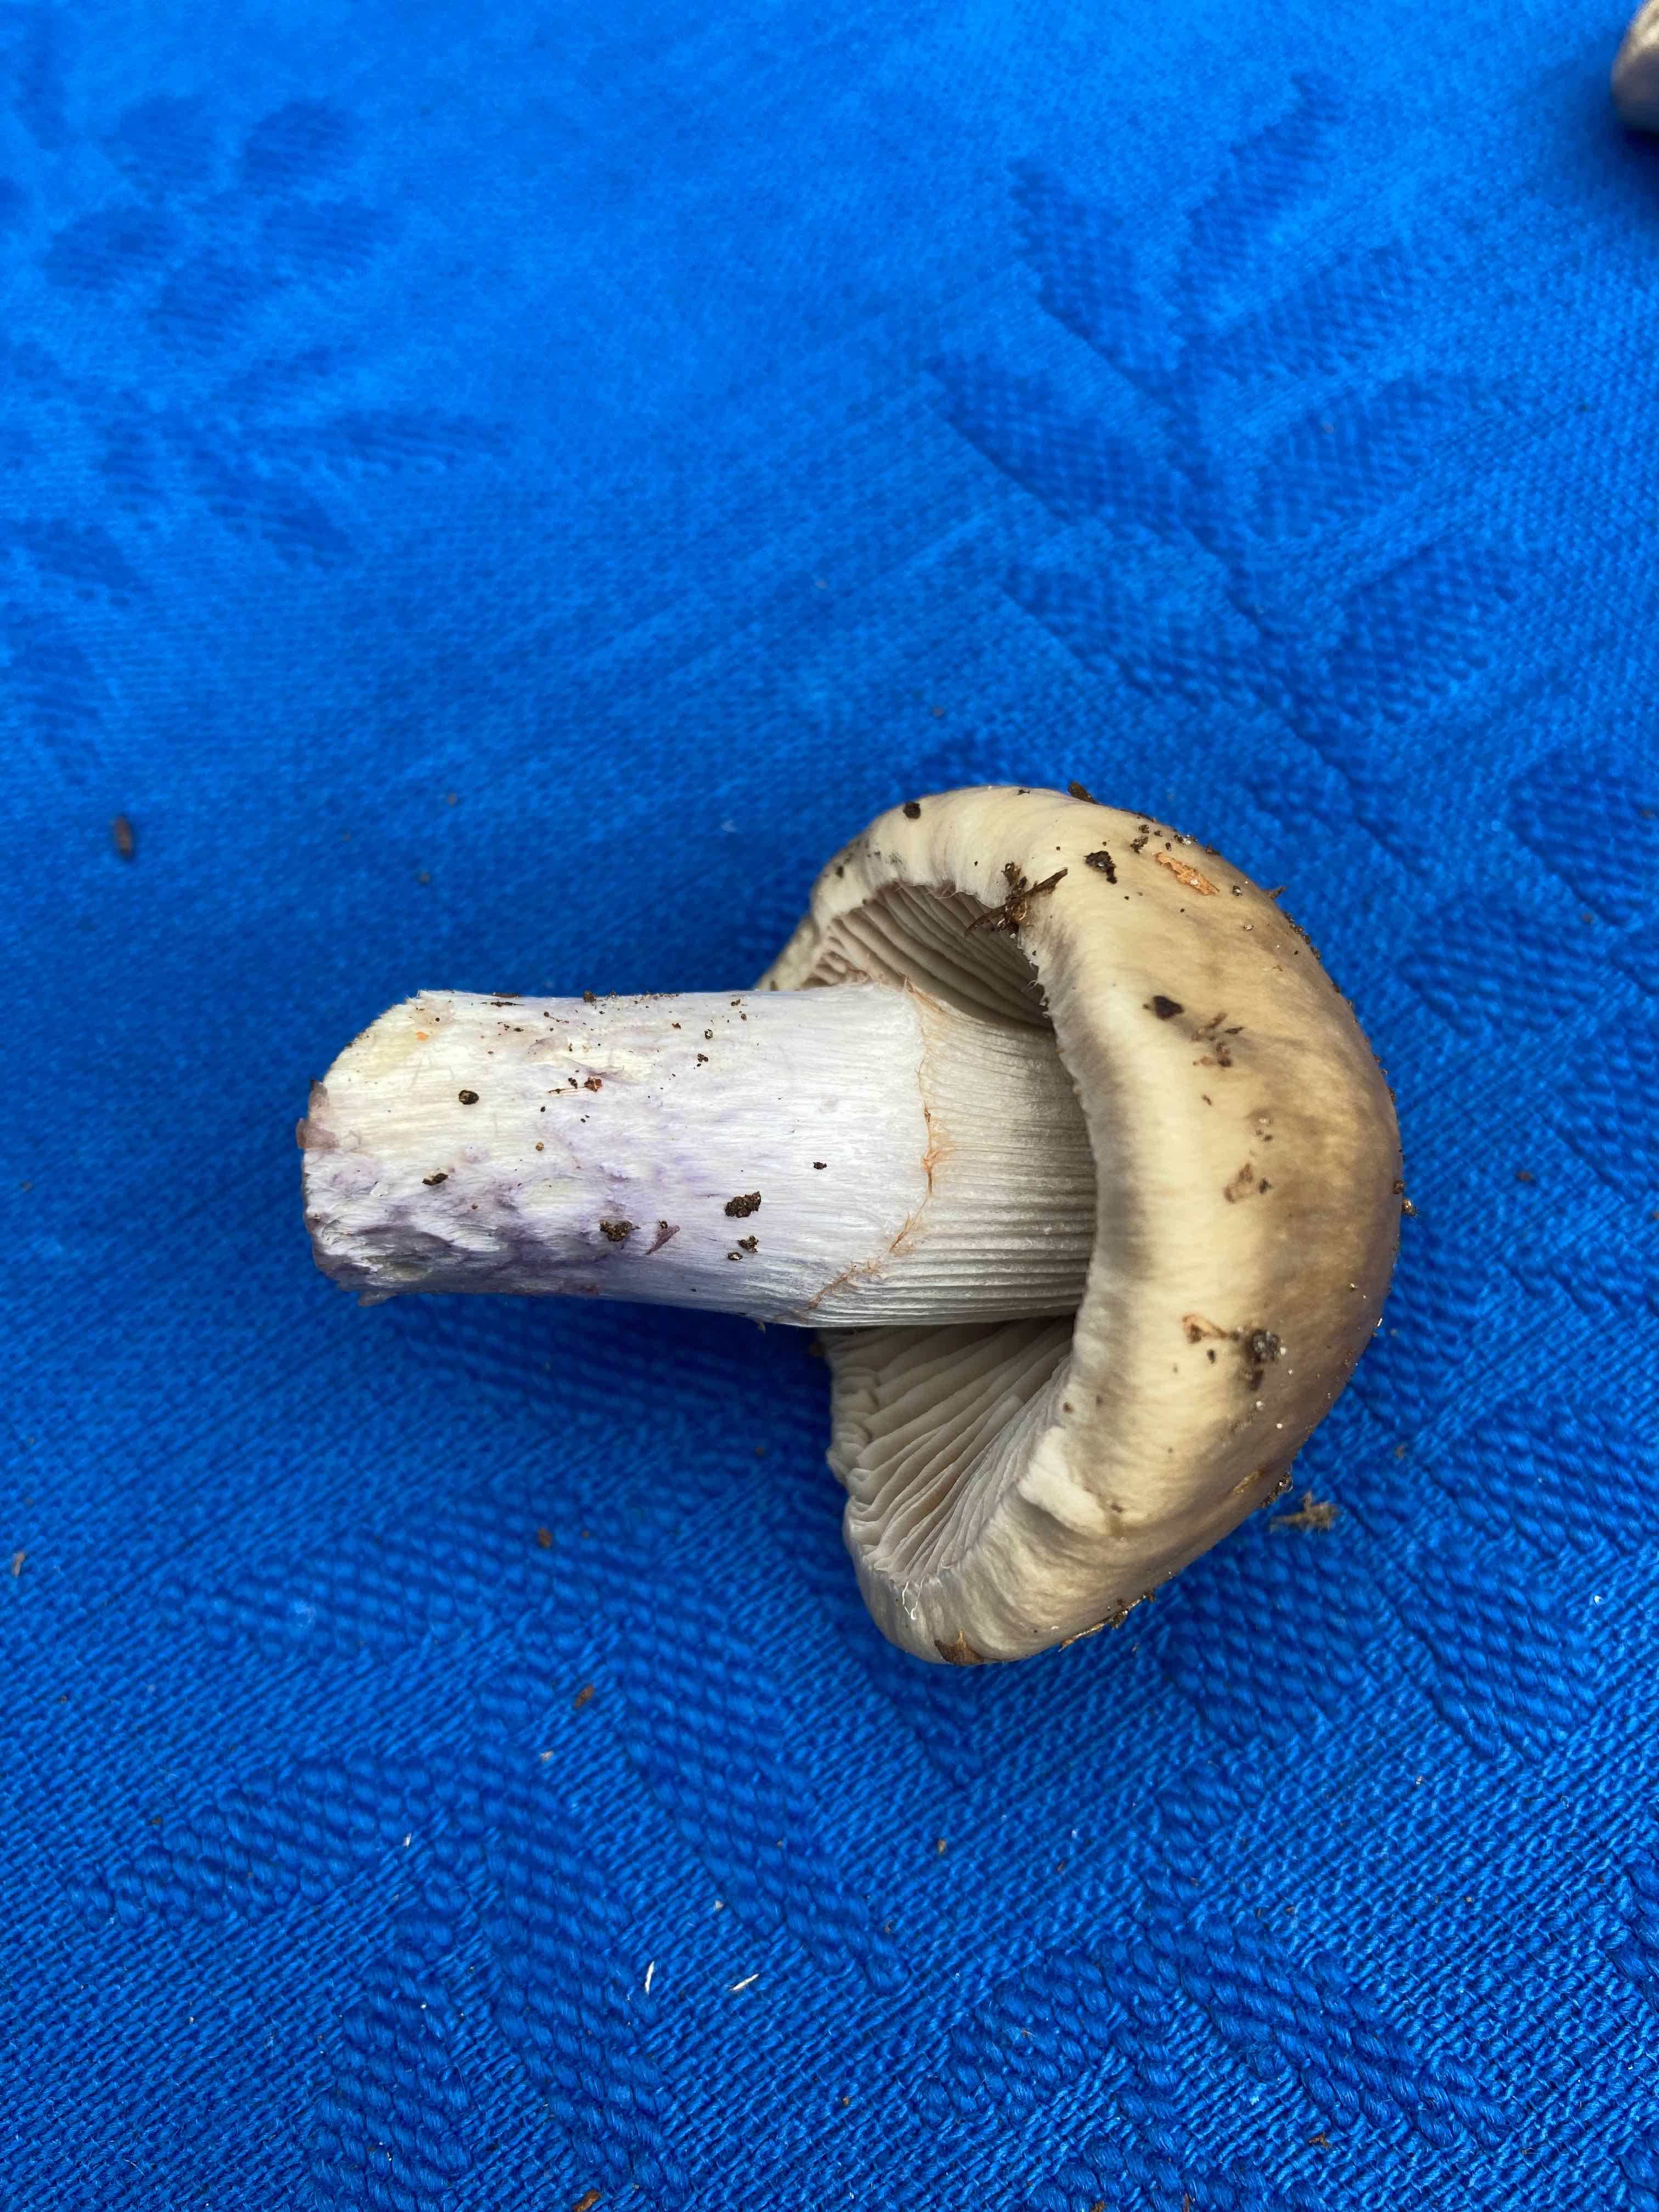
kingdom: Fungi
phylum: Basidiomycota
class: Agaricomycetes
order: Agaricales
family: Cortinariaceae
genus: Cortinarius
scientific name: Cortinarius
